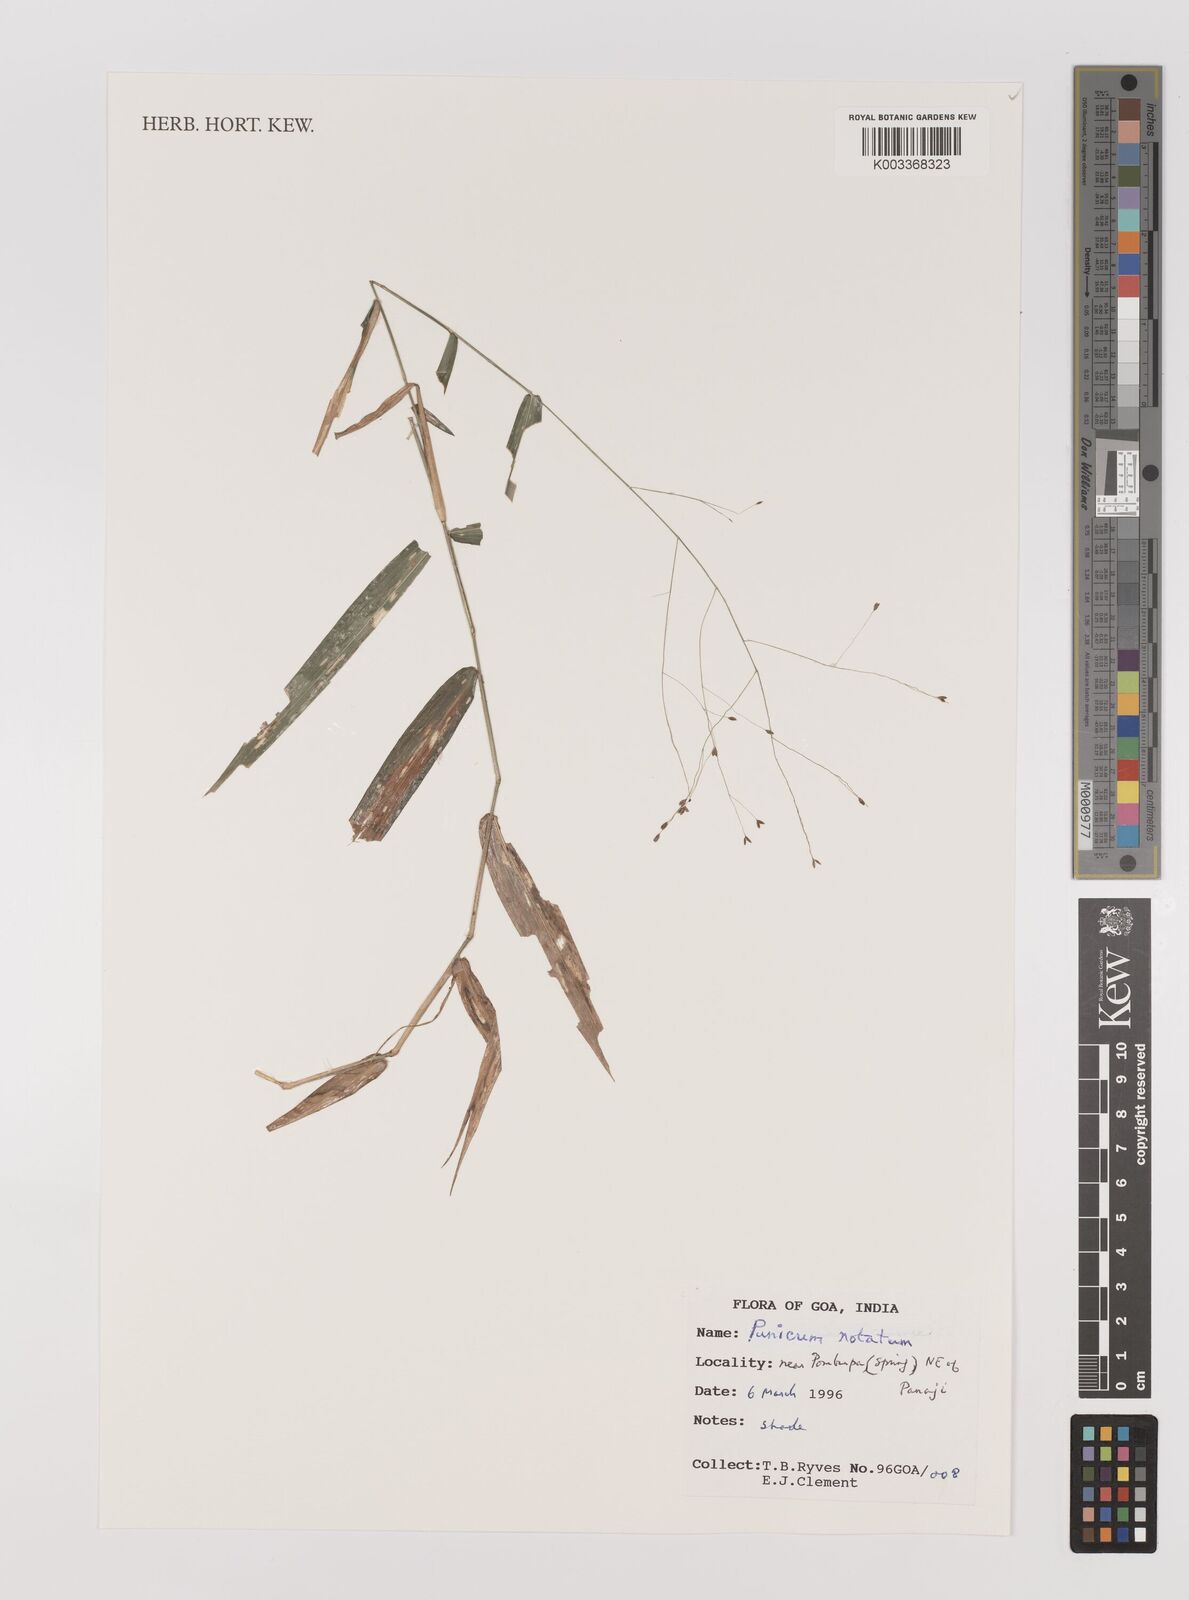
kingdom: Plantae
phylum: Tracheophyta
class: Liliopsida
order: Poales
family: Poaceae
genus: Panicum
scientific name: Panicum notatum
